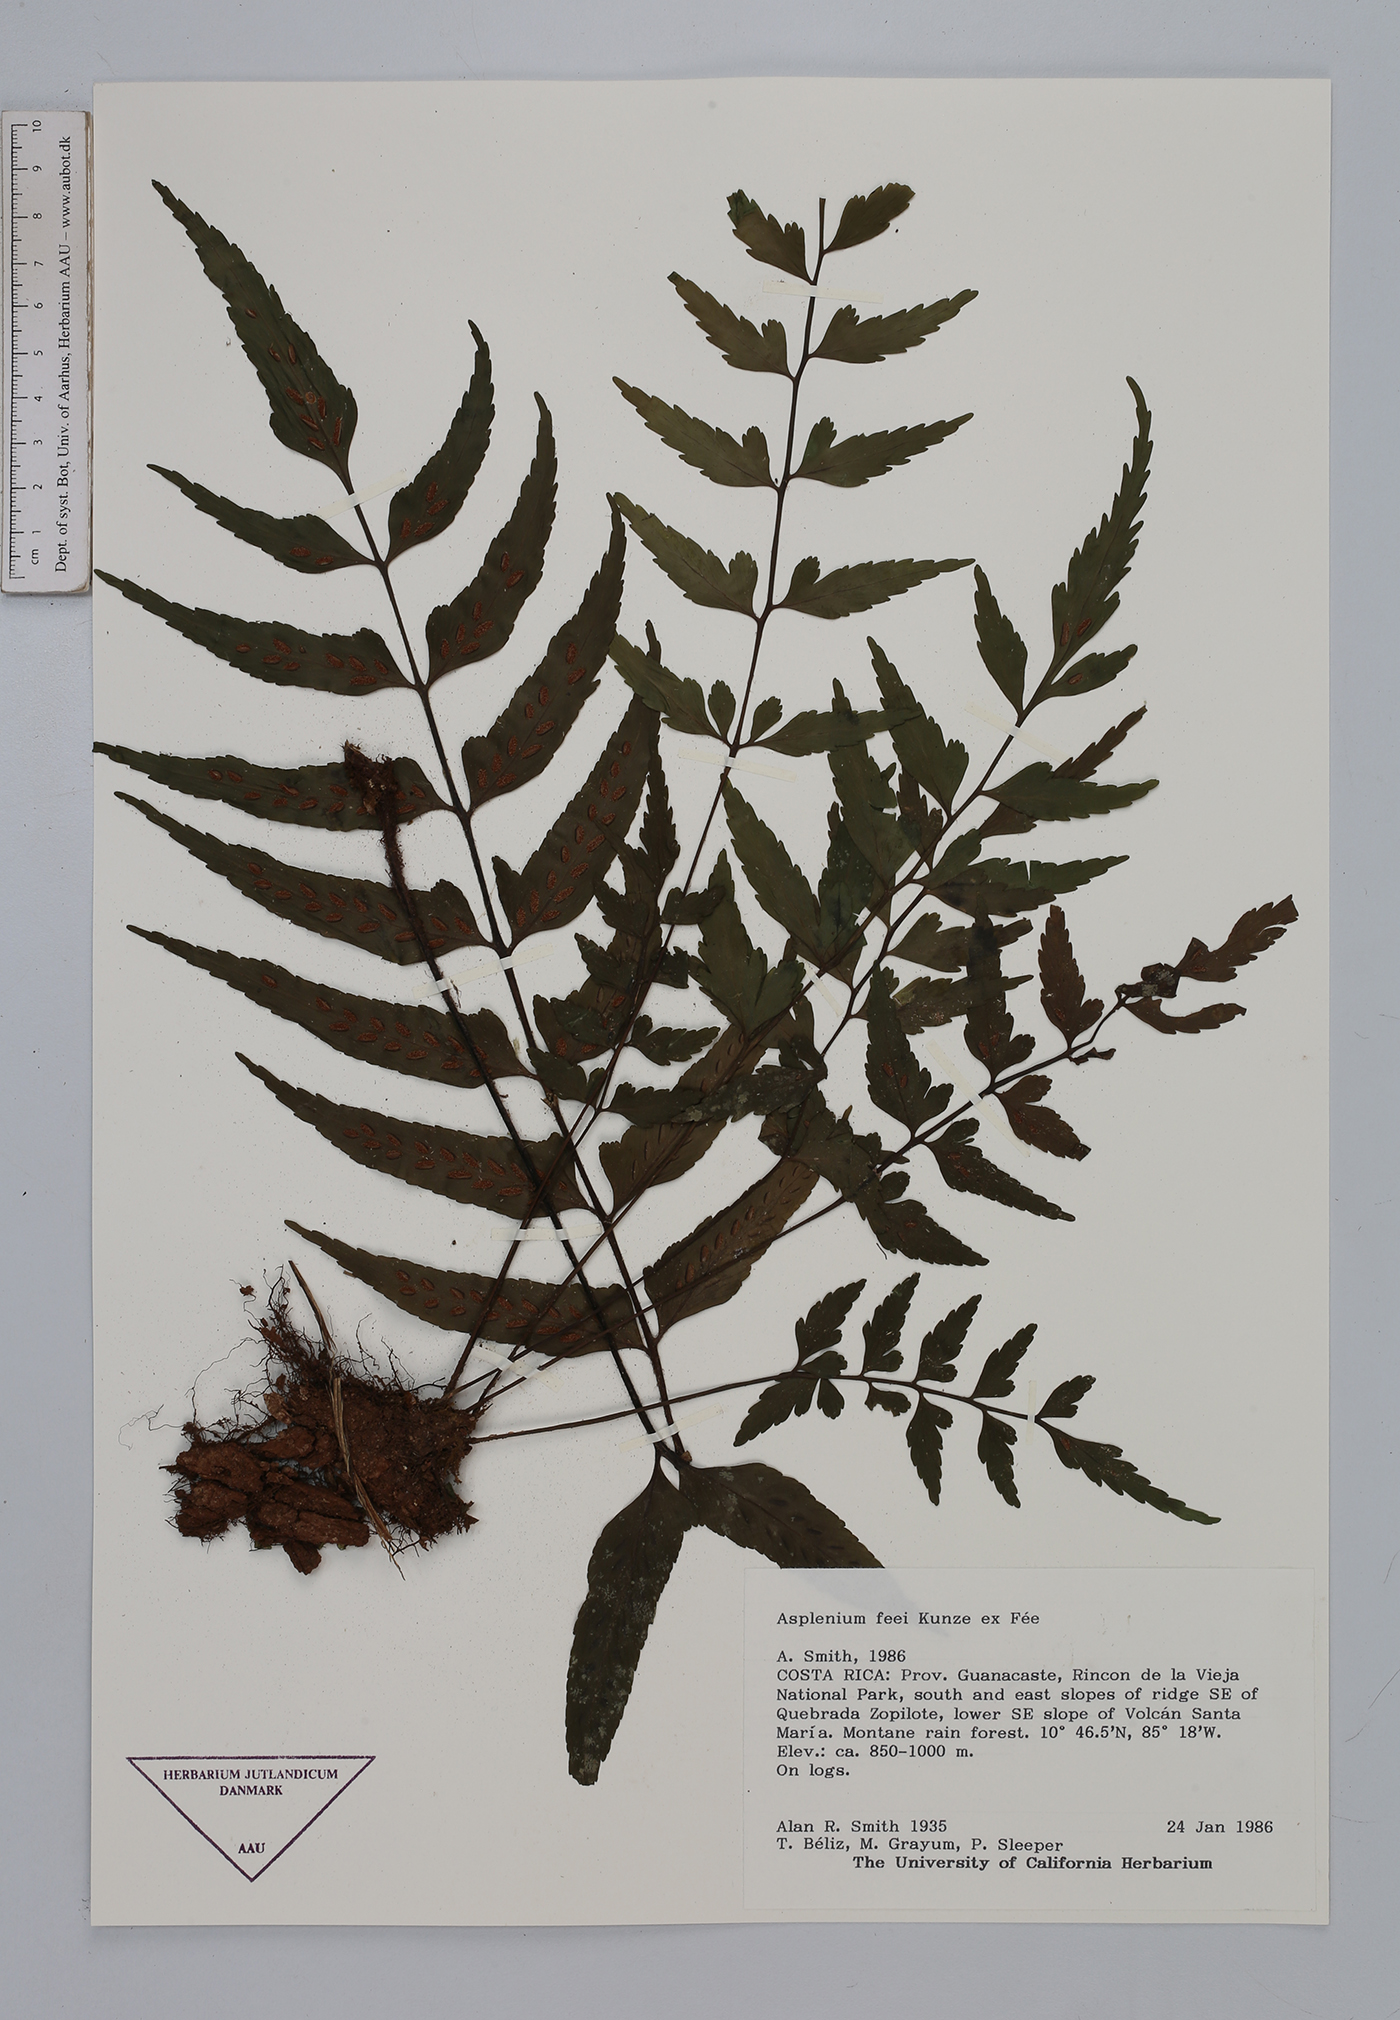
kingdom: Plantae
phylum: Tracheophyta
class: Polypodiopsida
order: Polypodiales
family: Aspleniaceae
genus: Asplenium
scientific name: Asplenium feei
